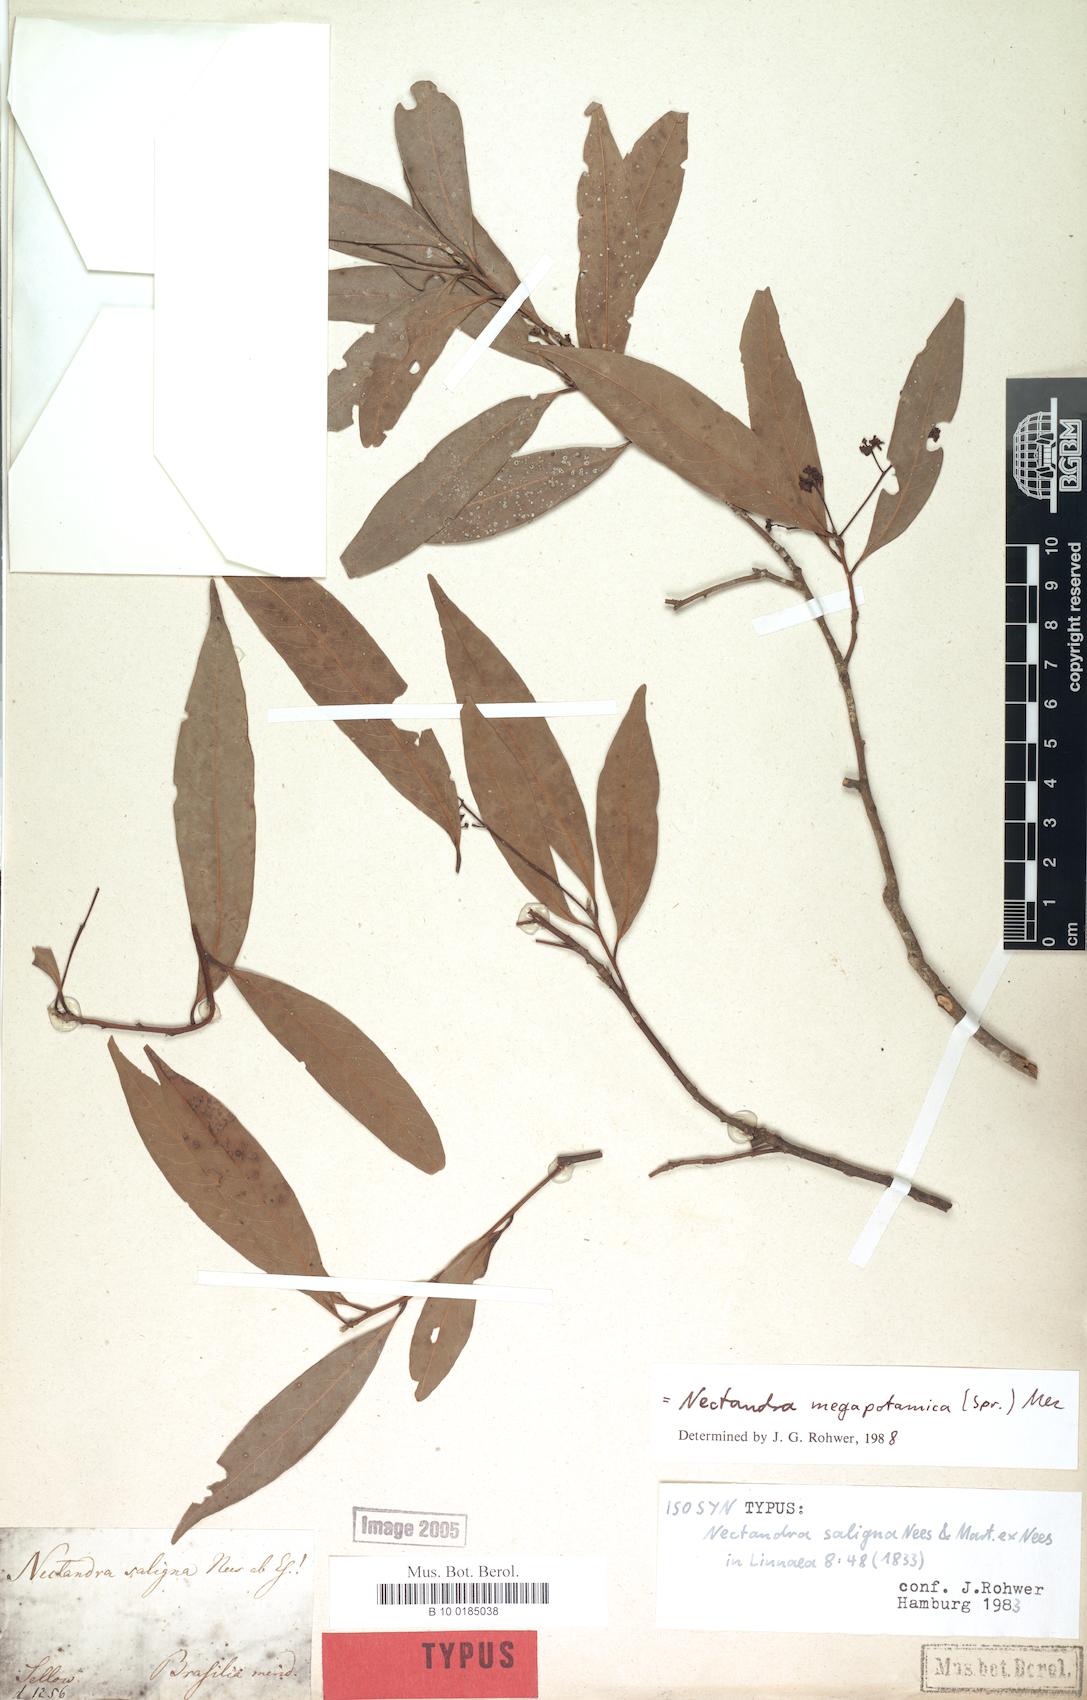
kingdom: Plantae
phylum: Tracheophyta
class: Magnoliopsida
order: Laurales
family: Lauraceae
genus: Nectandra
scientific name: Nectandra megapotamica
